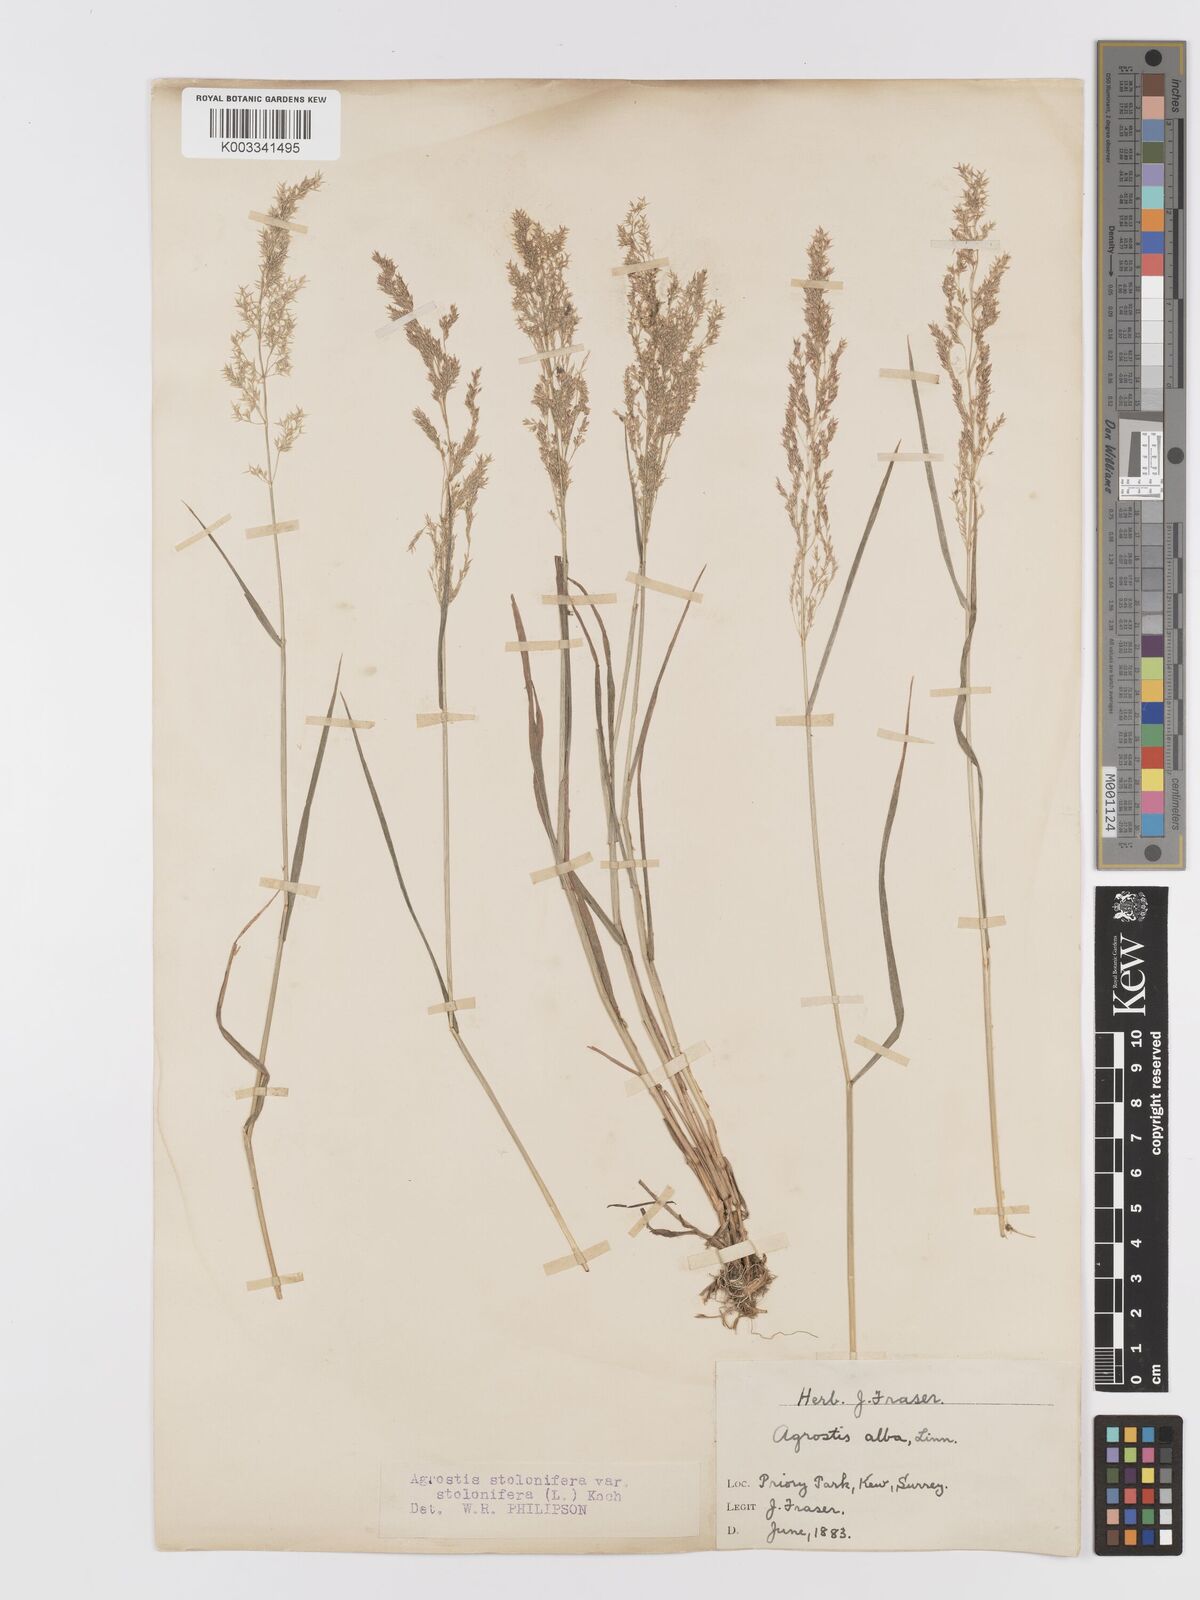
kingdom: Plantae
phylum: Tracheophyta
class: Liliopsida
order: Poales
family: Poaceae
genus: Agrostis
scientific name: Agrostis stolonifera
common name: Creeping bentgrass
